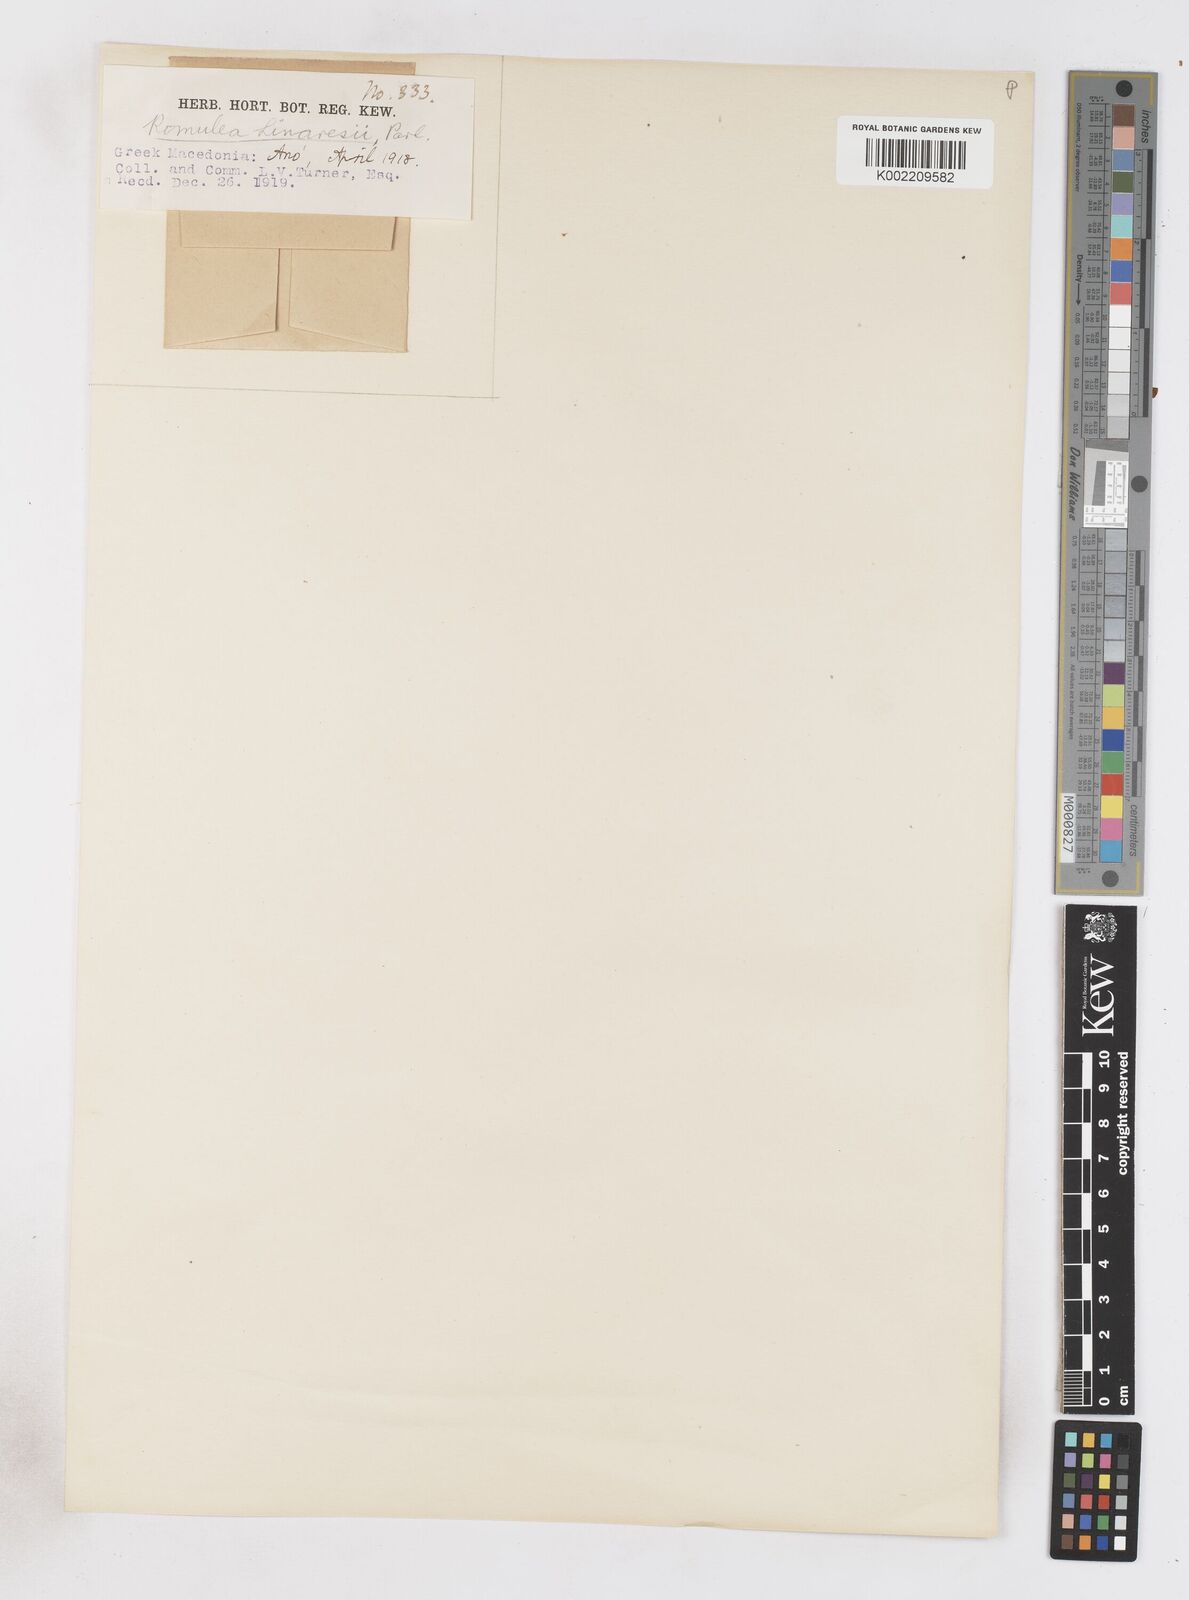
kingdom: Plantae
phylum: Tracheophyta
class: Liliopsida
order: Asparagales
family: Iridaceae
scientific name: Iridaceae
